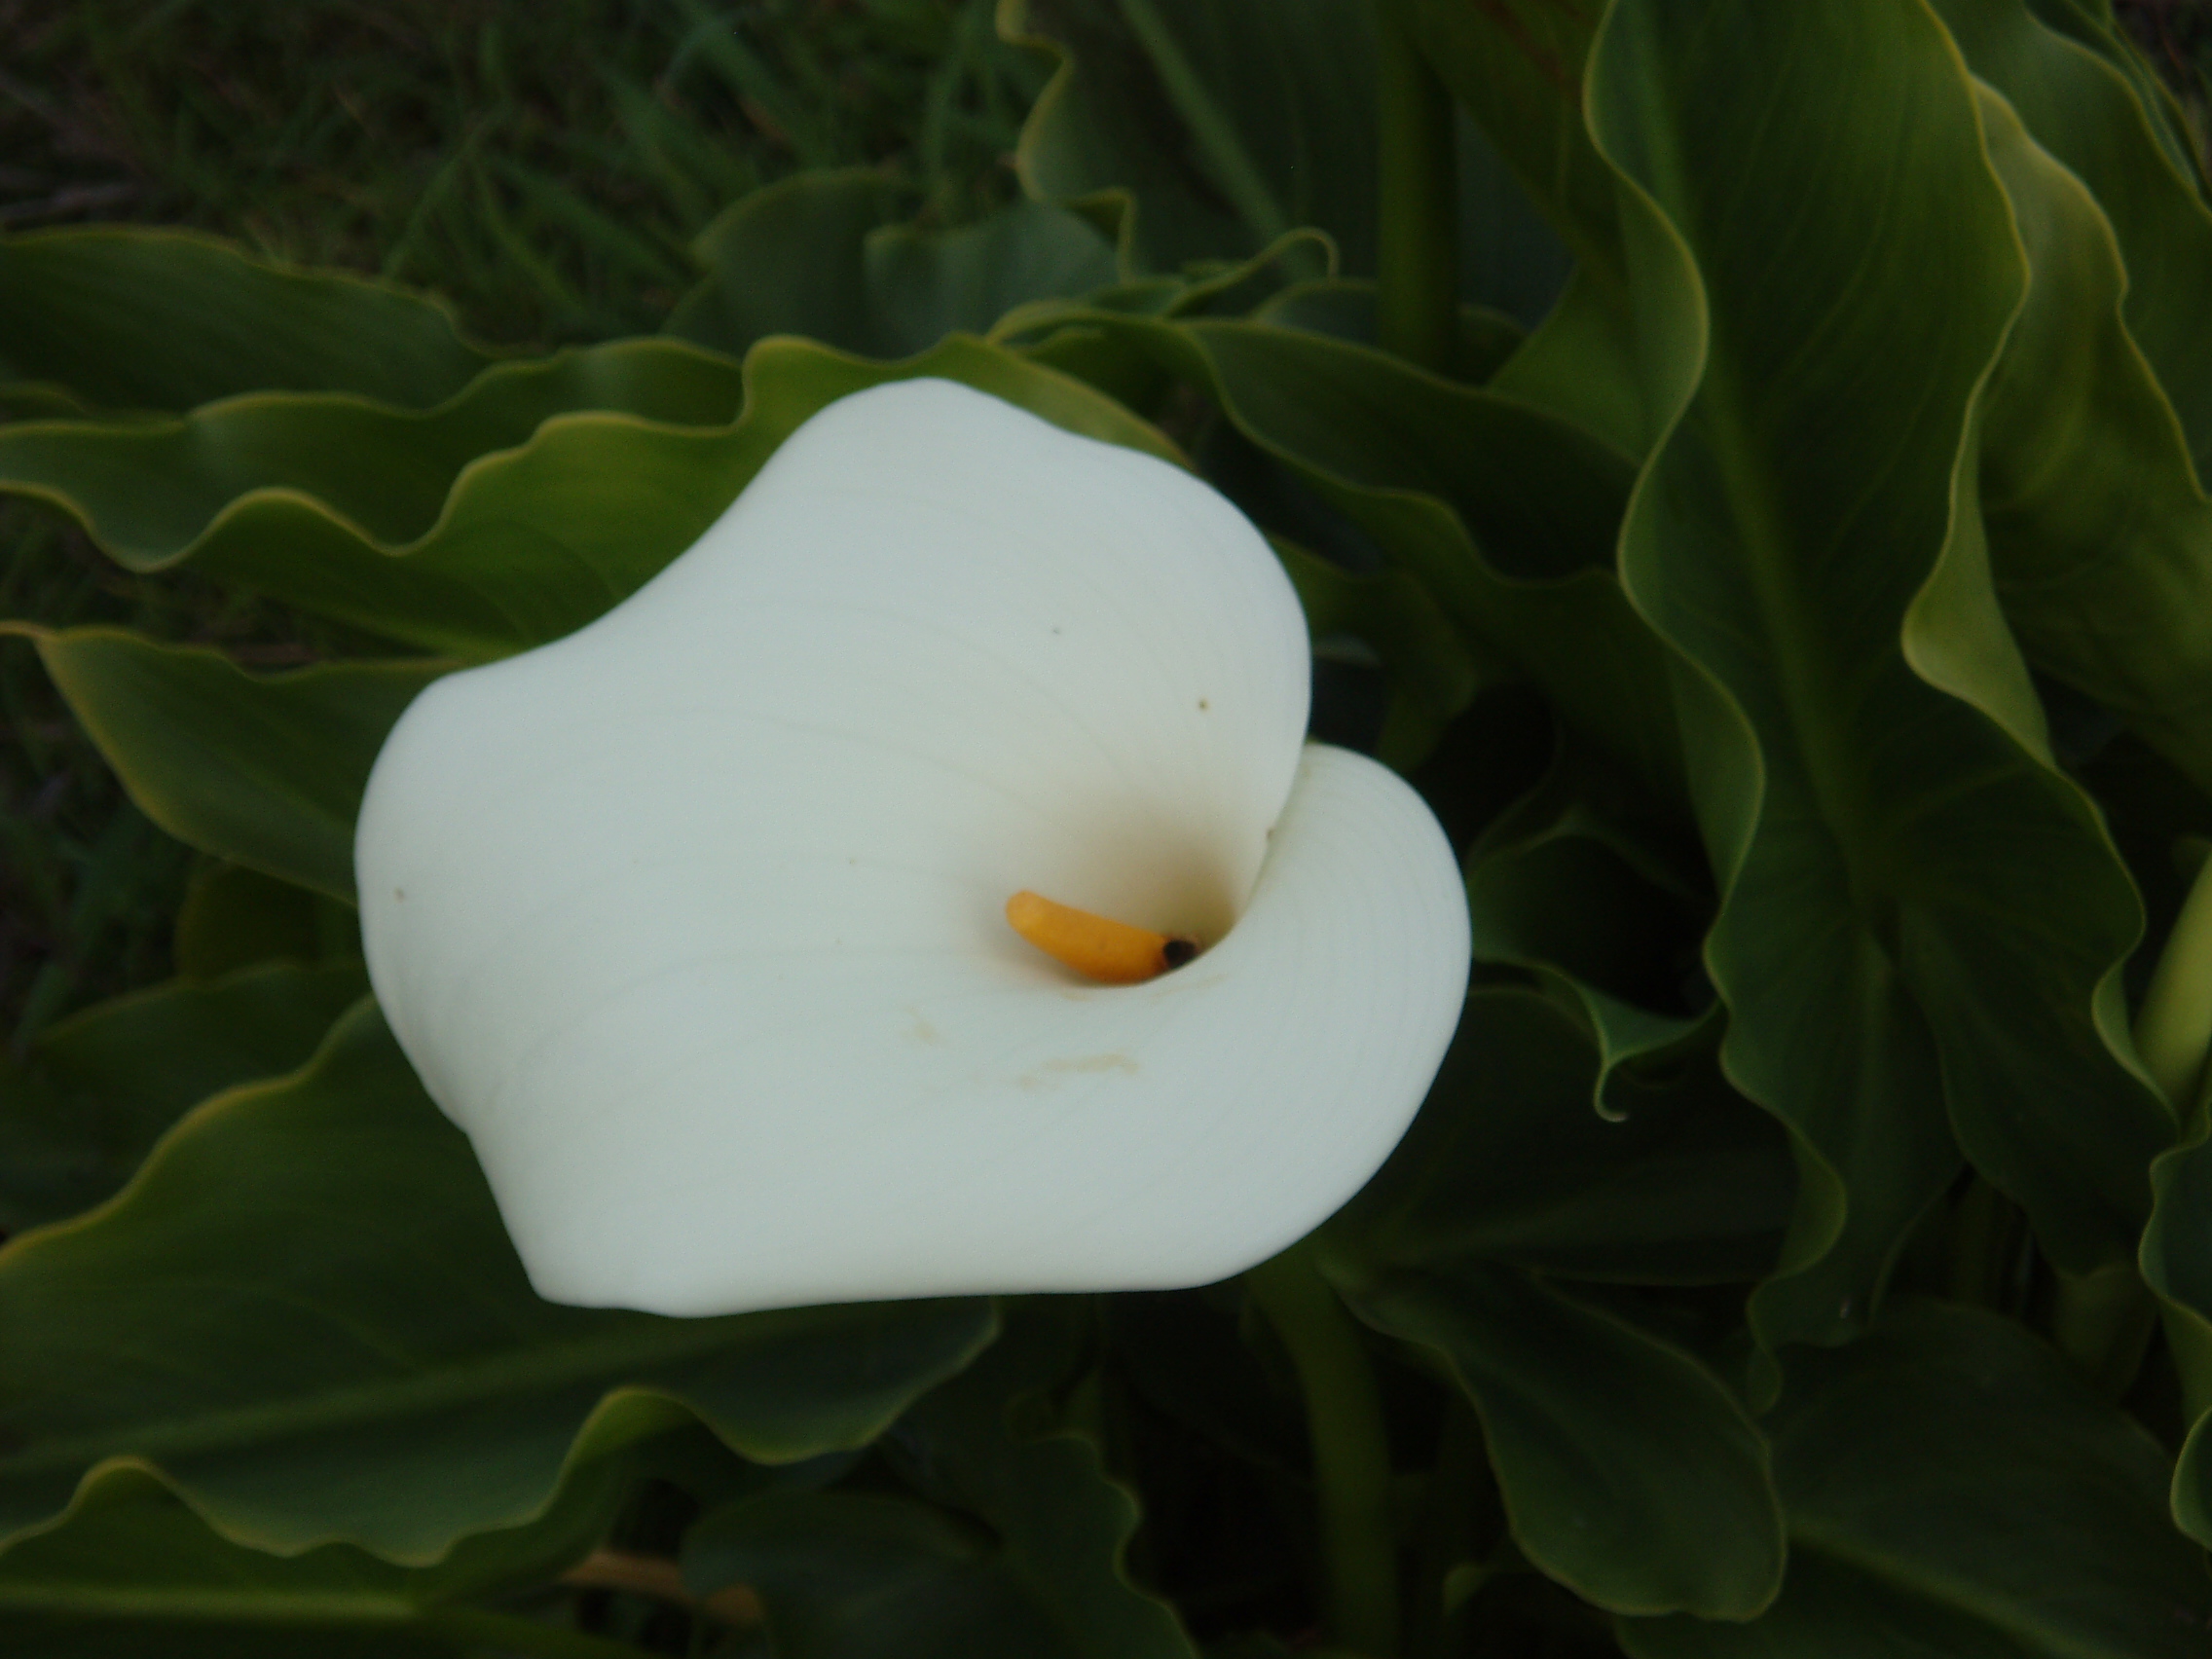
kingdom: Plantae
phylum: Tracheophyta
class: Liliopsida
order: Alismatales
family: Araceae
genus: Zantedeschia
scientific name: Zantedeschia aethiopica
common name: Altar-lily
